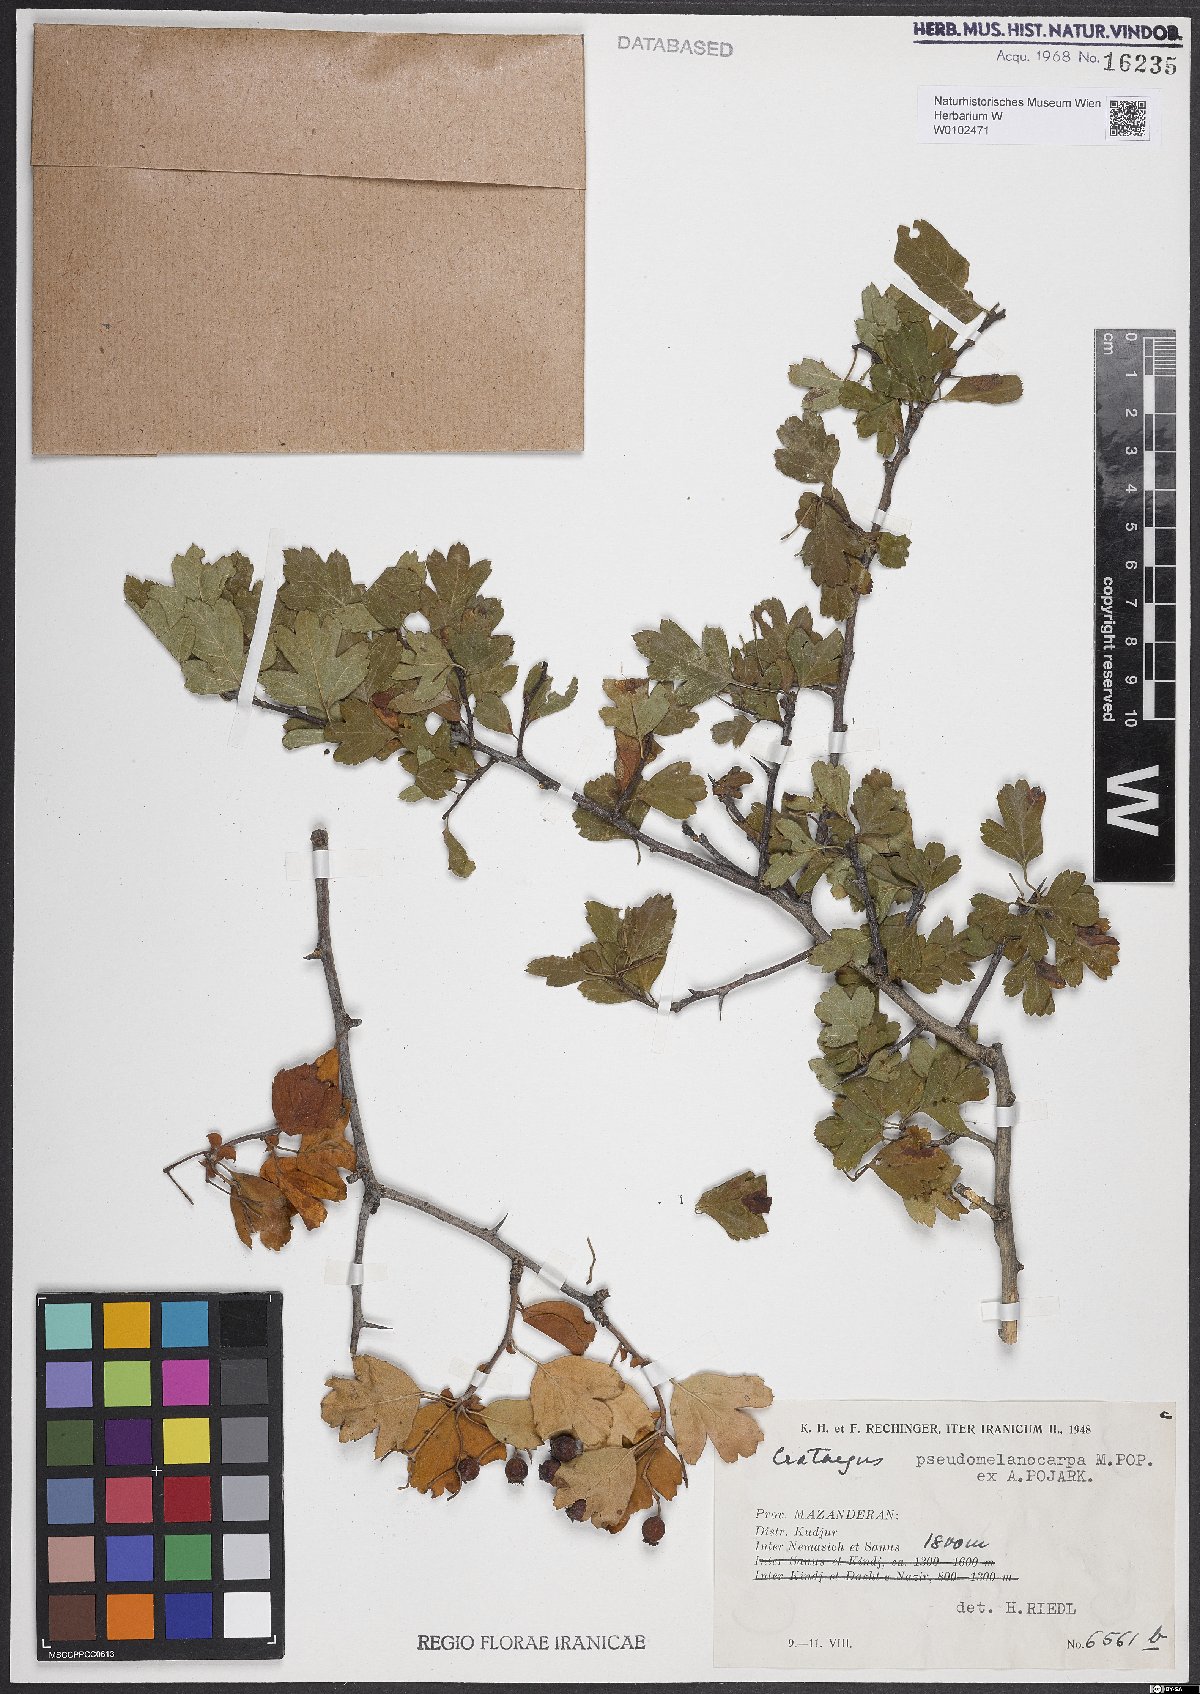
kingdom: Plantae
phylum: Tracheophyta
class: Magnoliopsida
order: Rosales
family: Rosaceae
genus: Crataegus
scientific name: Crataegus pentagyna
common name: Small-flowered black hawthorn
